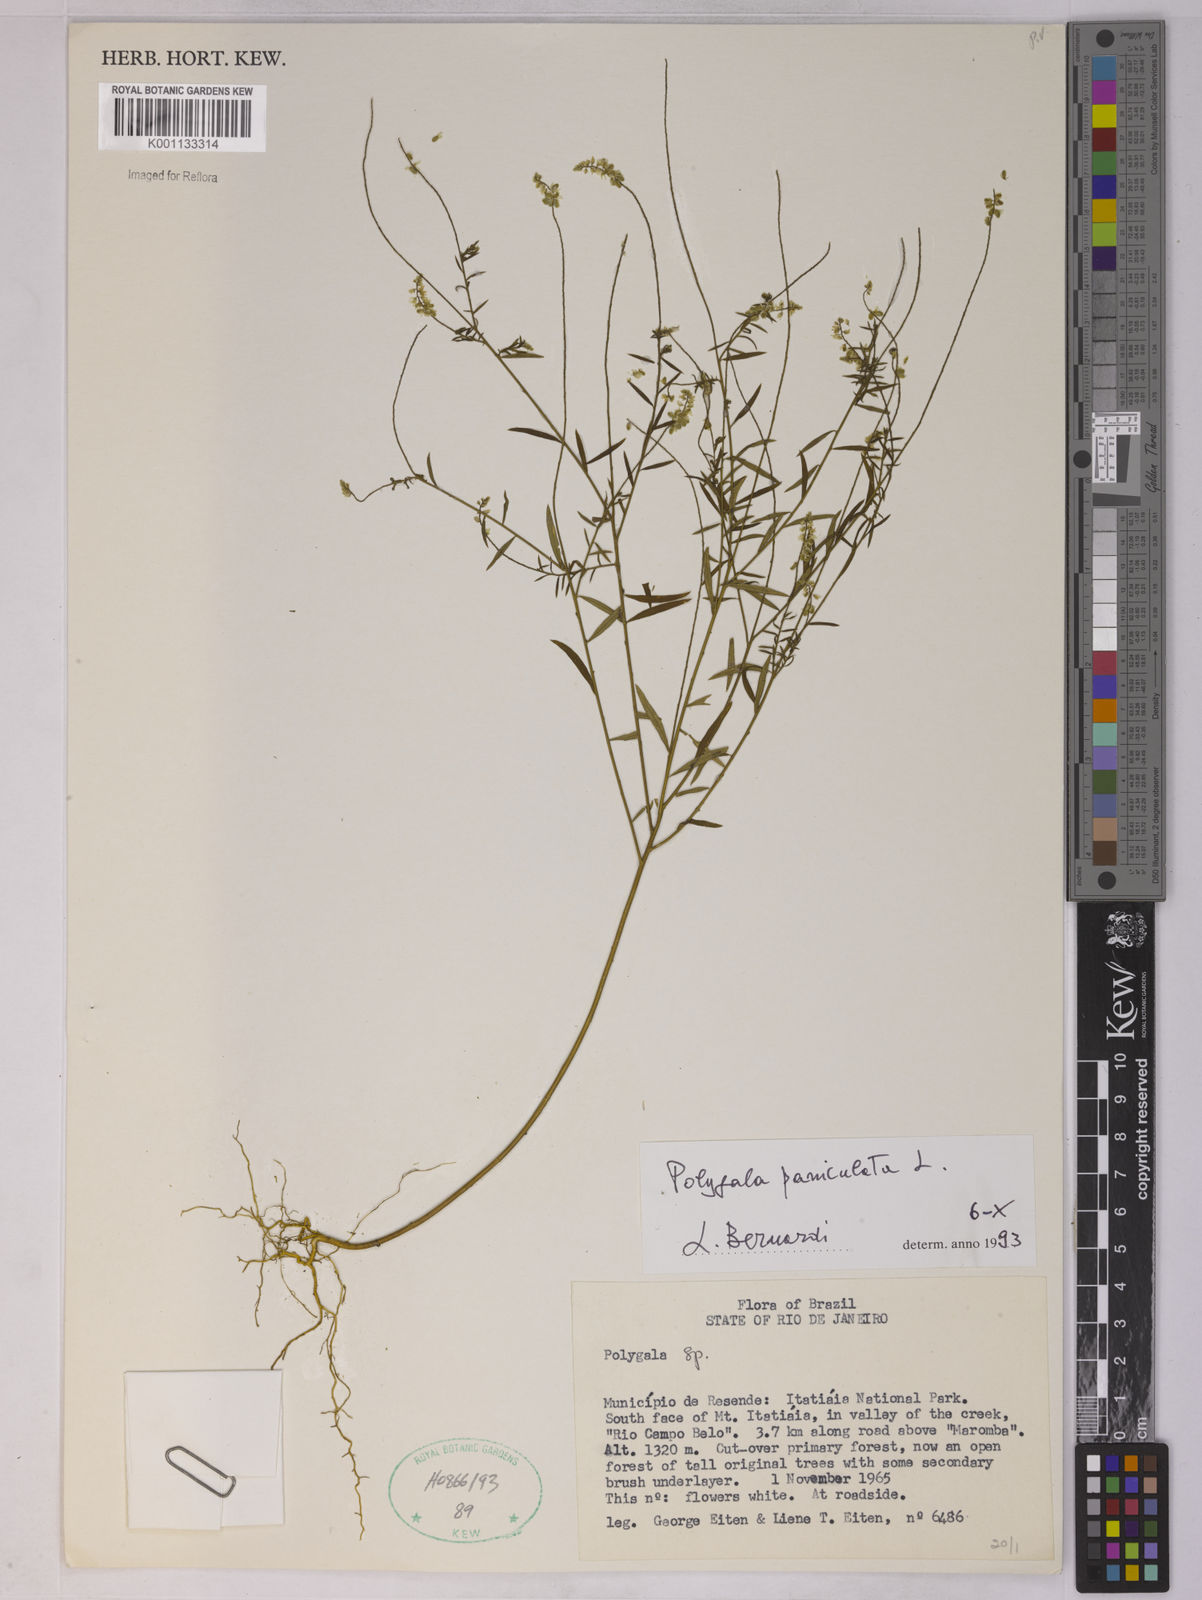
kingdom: Plantae
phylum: Tracheophyta
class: Magnoliopsida
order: Fabales
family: Polygalaceae
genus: Polygala
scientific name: Polygala paniculata
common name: Orosne
